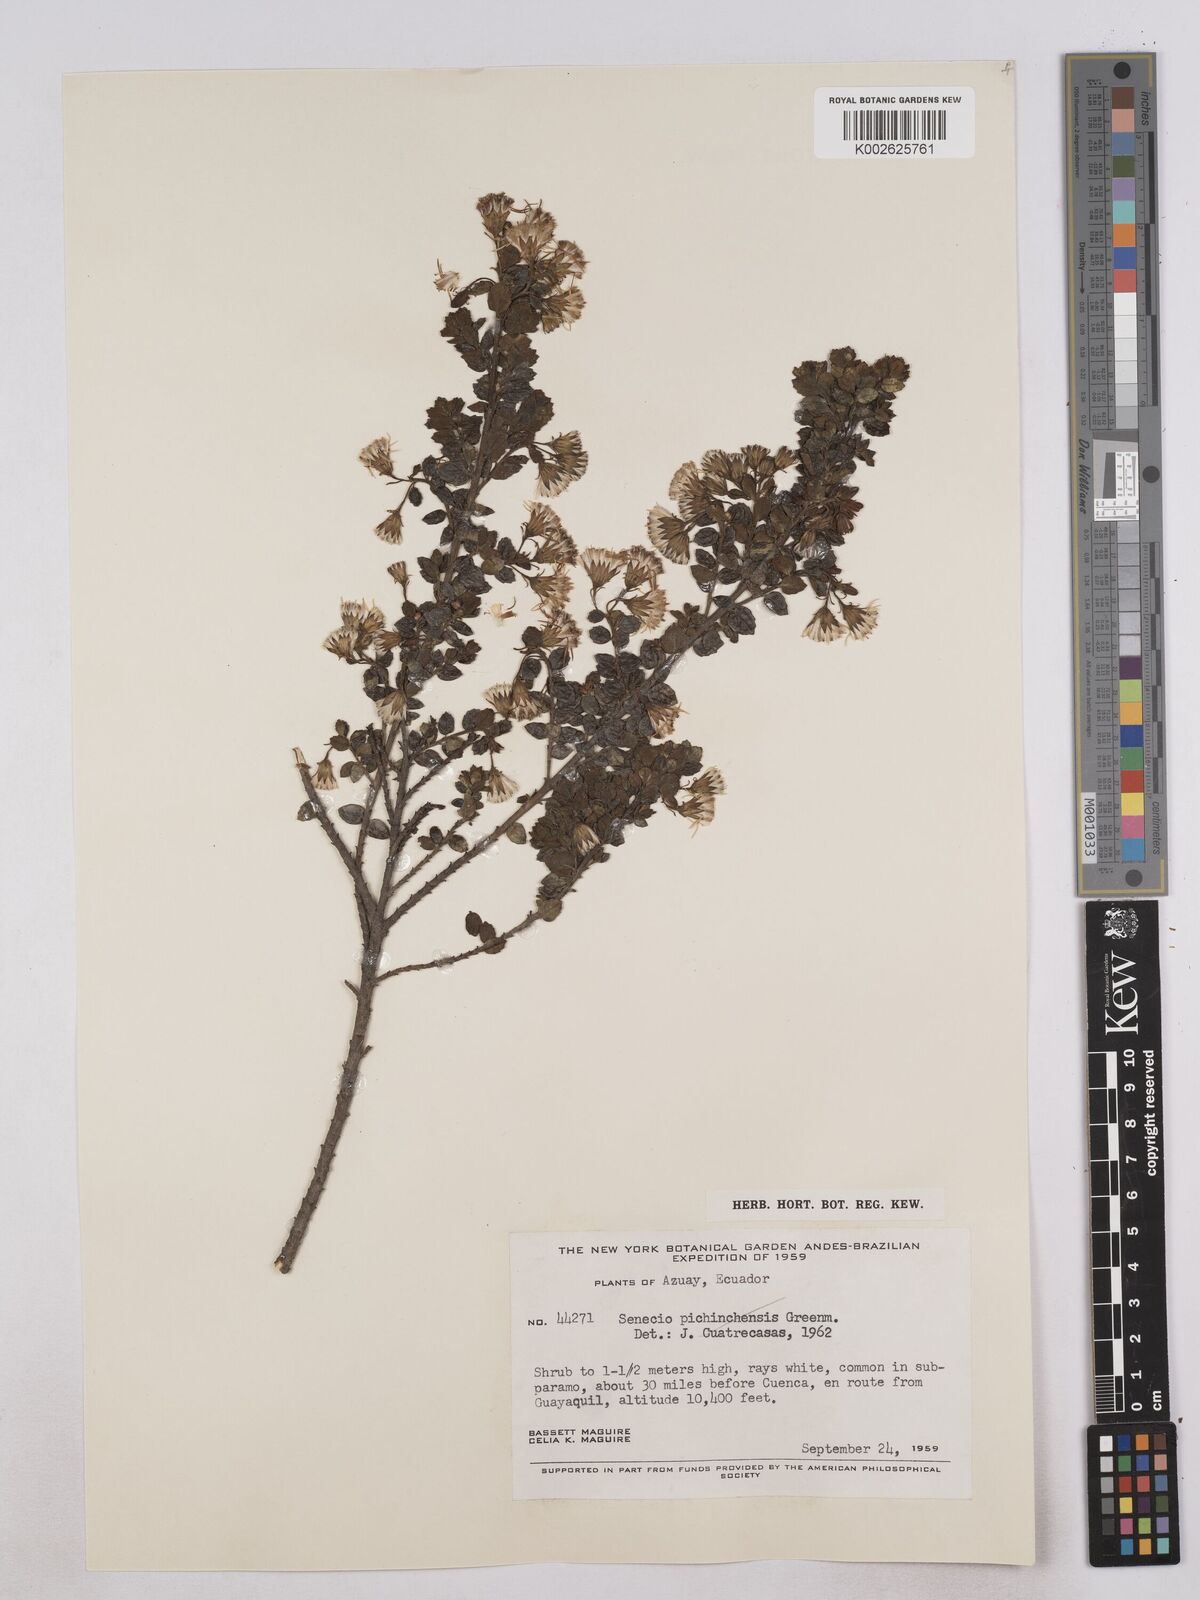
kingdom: Plantae
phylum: Tracheophyta
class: Magnoliopsida
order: Asterales
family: Asteraceae
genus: Monticalia
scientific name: Monticalia myrsinites
